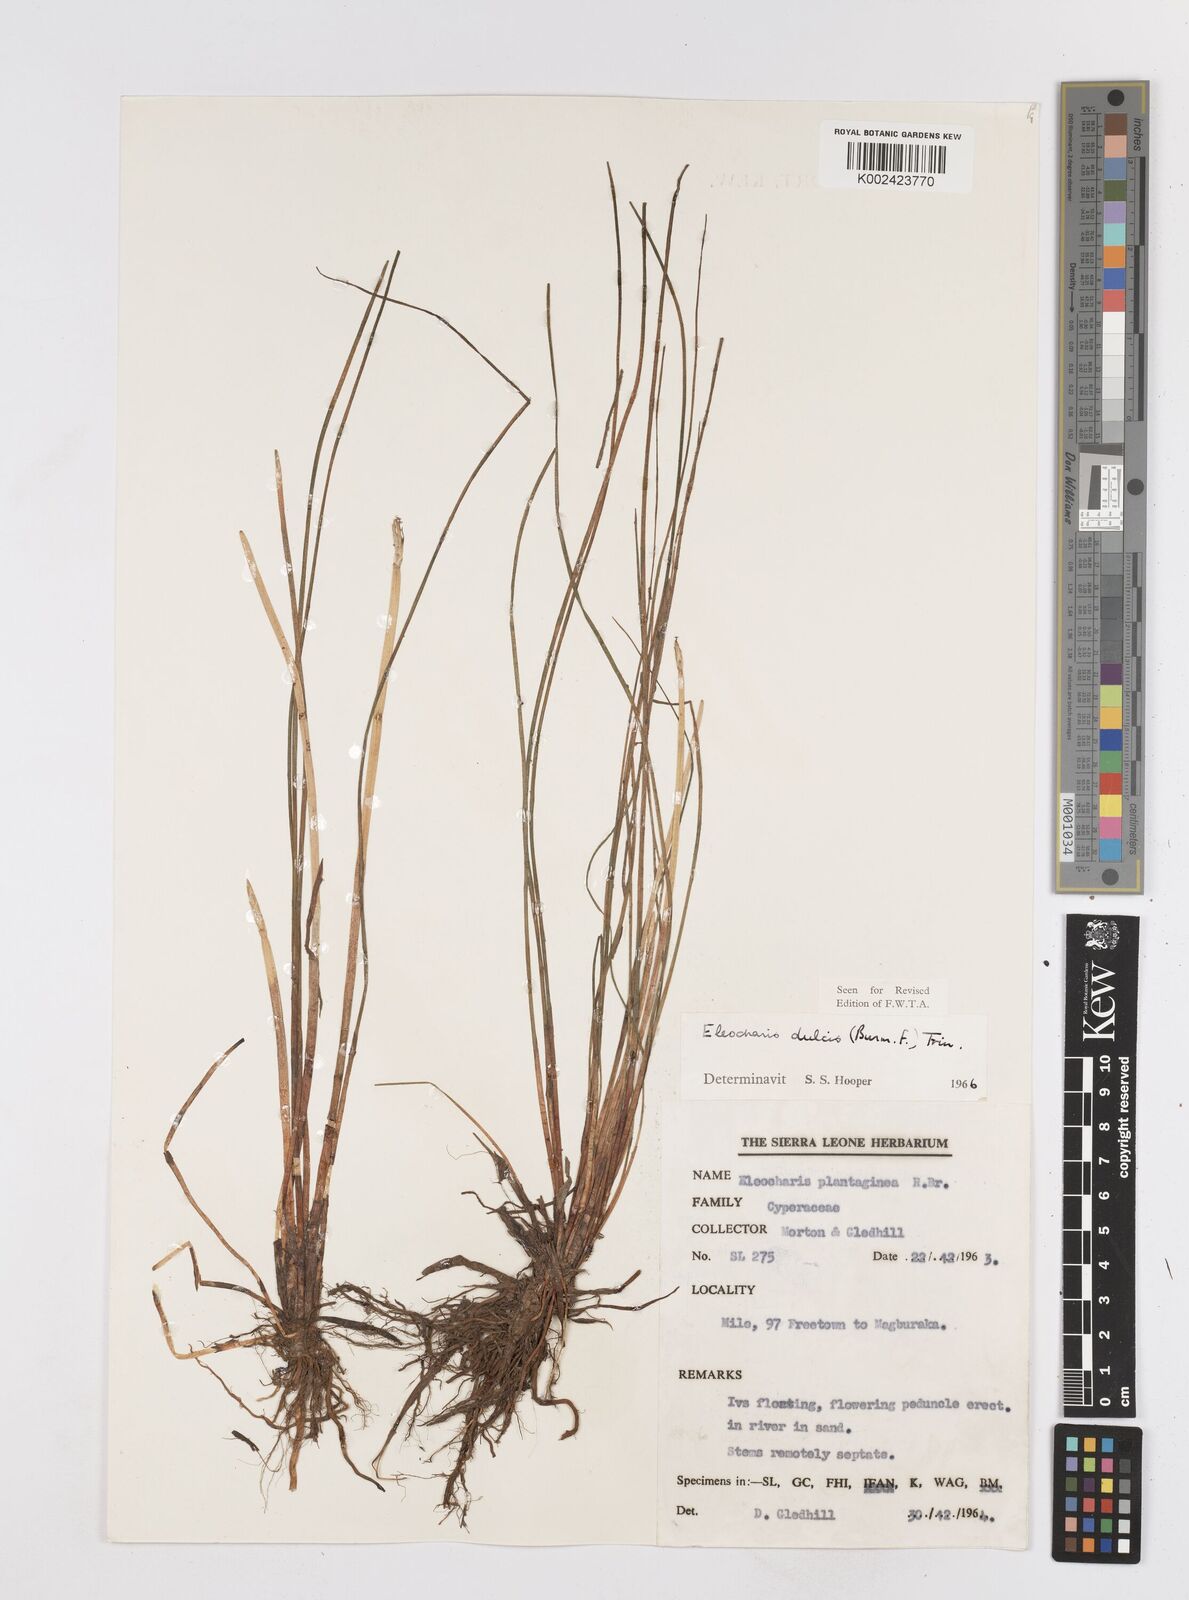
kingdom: Plantae
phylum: Tracheophyta
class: Liliopsida
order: Poales
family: Cyperaceae
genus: Eleocharis
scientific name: Eleocharis dulcis
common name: Chinese water chestnut
